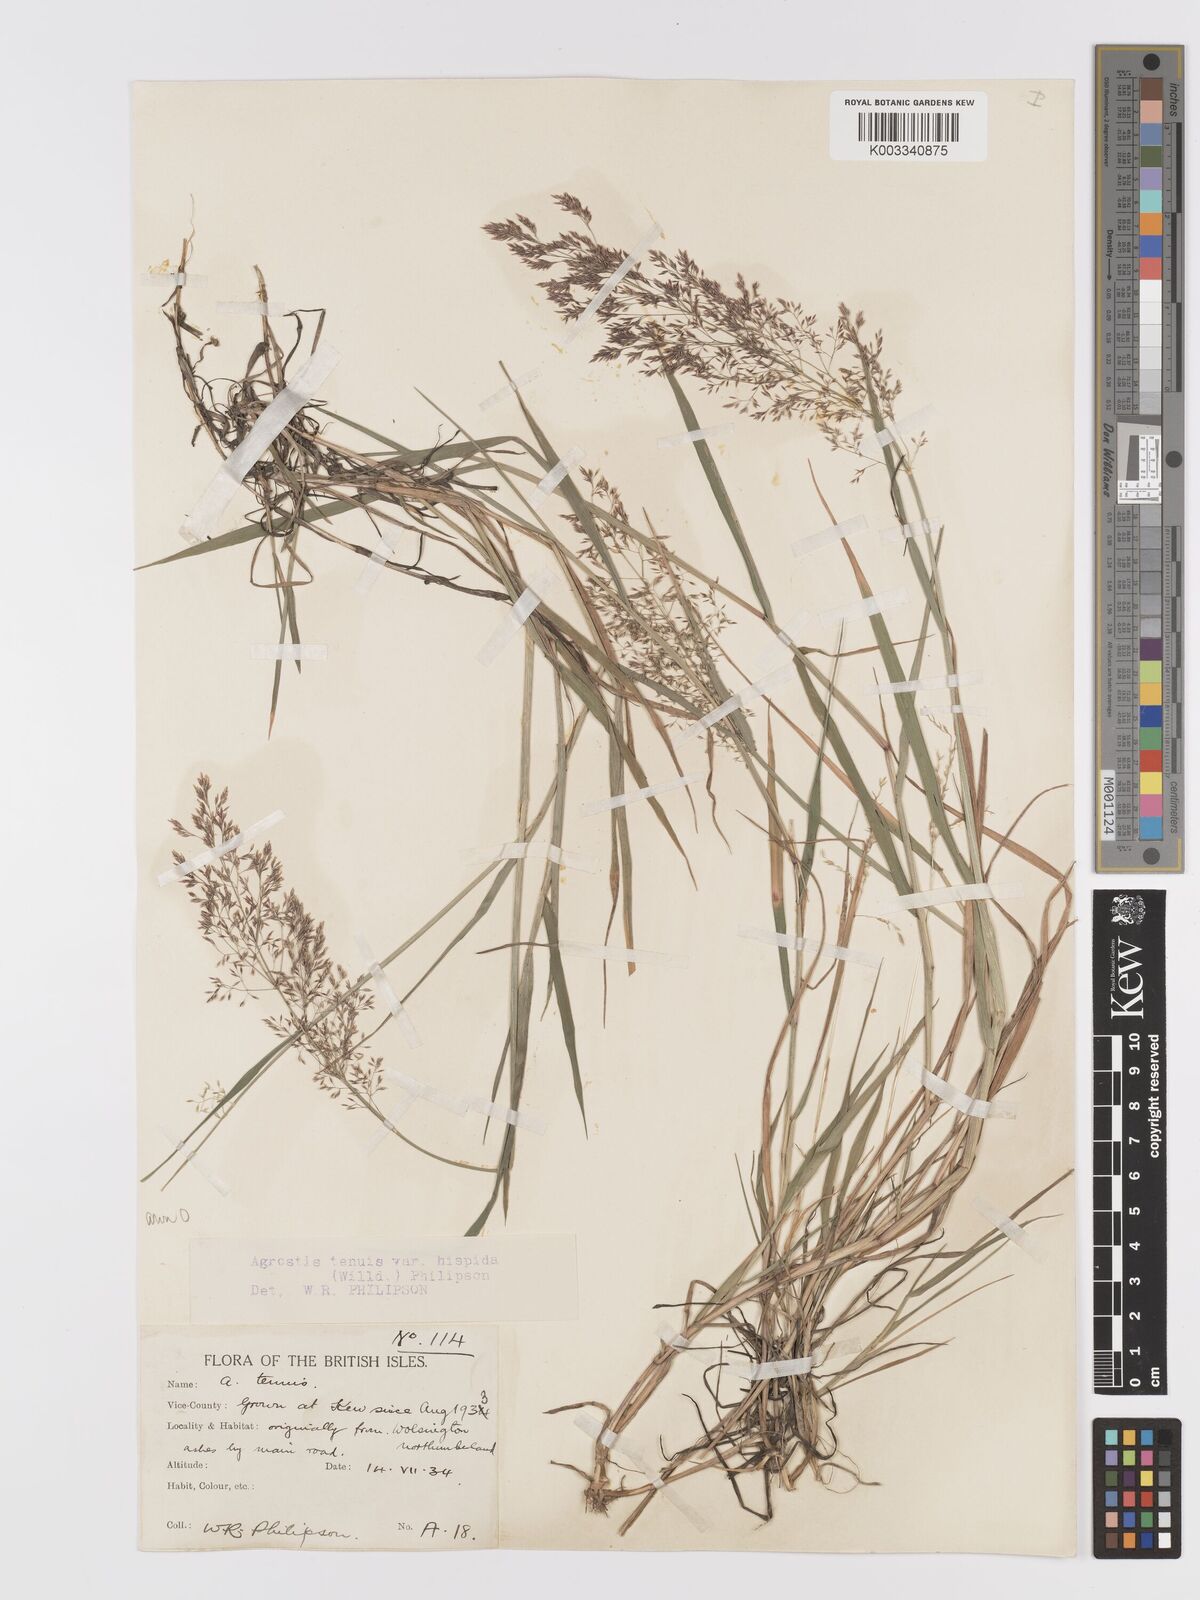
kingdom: Plantae
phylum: Tracheophyta
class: Liliopsida
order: Poales
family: Poaceae
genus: Agrostis
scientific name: Agrostis capillaris
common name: Colonial bentgrass
